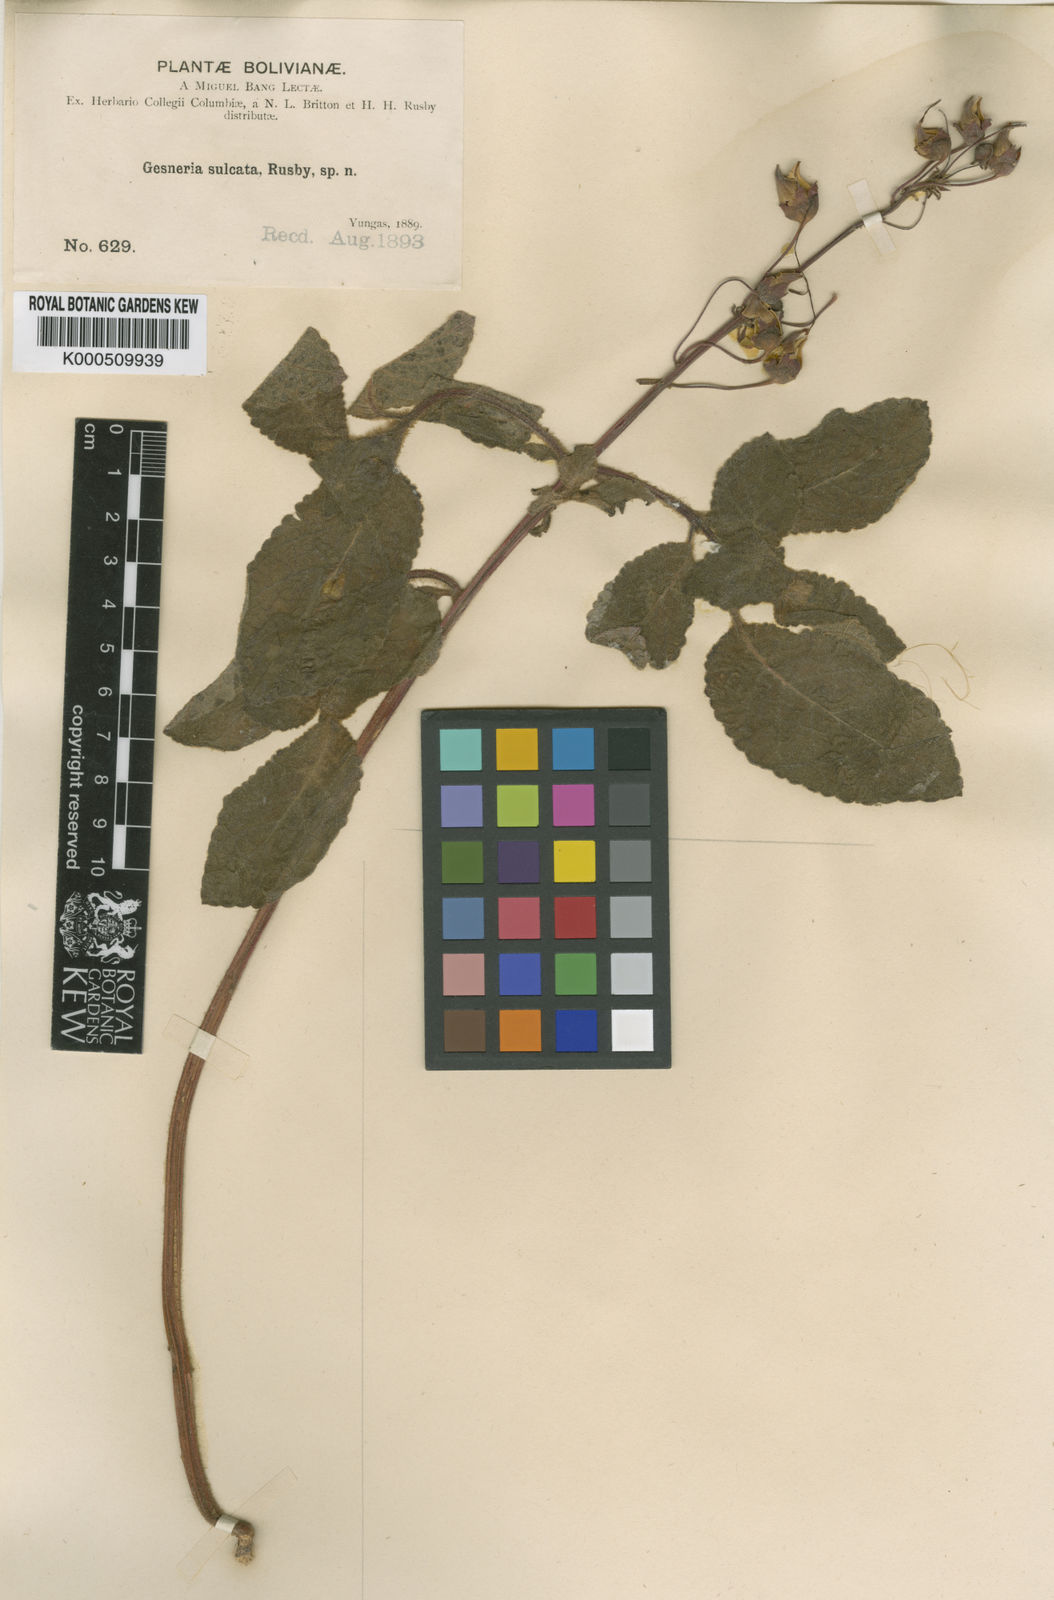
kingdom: Plantae
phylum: Tracheophyta
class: Magnoliopsida
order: Lamiales
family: Gesneriaceae
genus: Sinningia
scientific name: Sinningia sulcata
